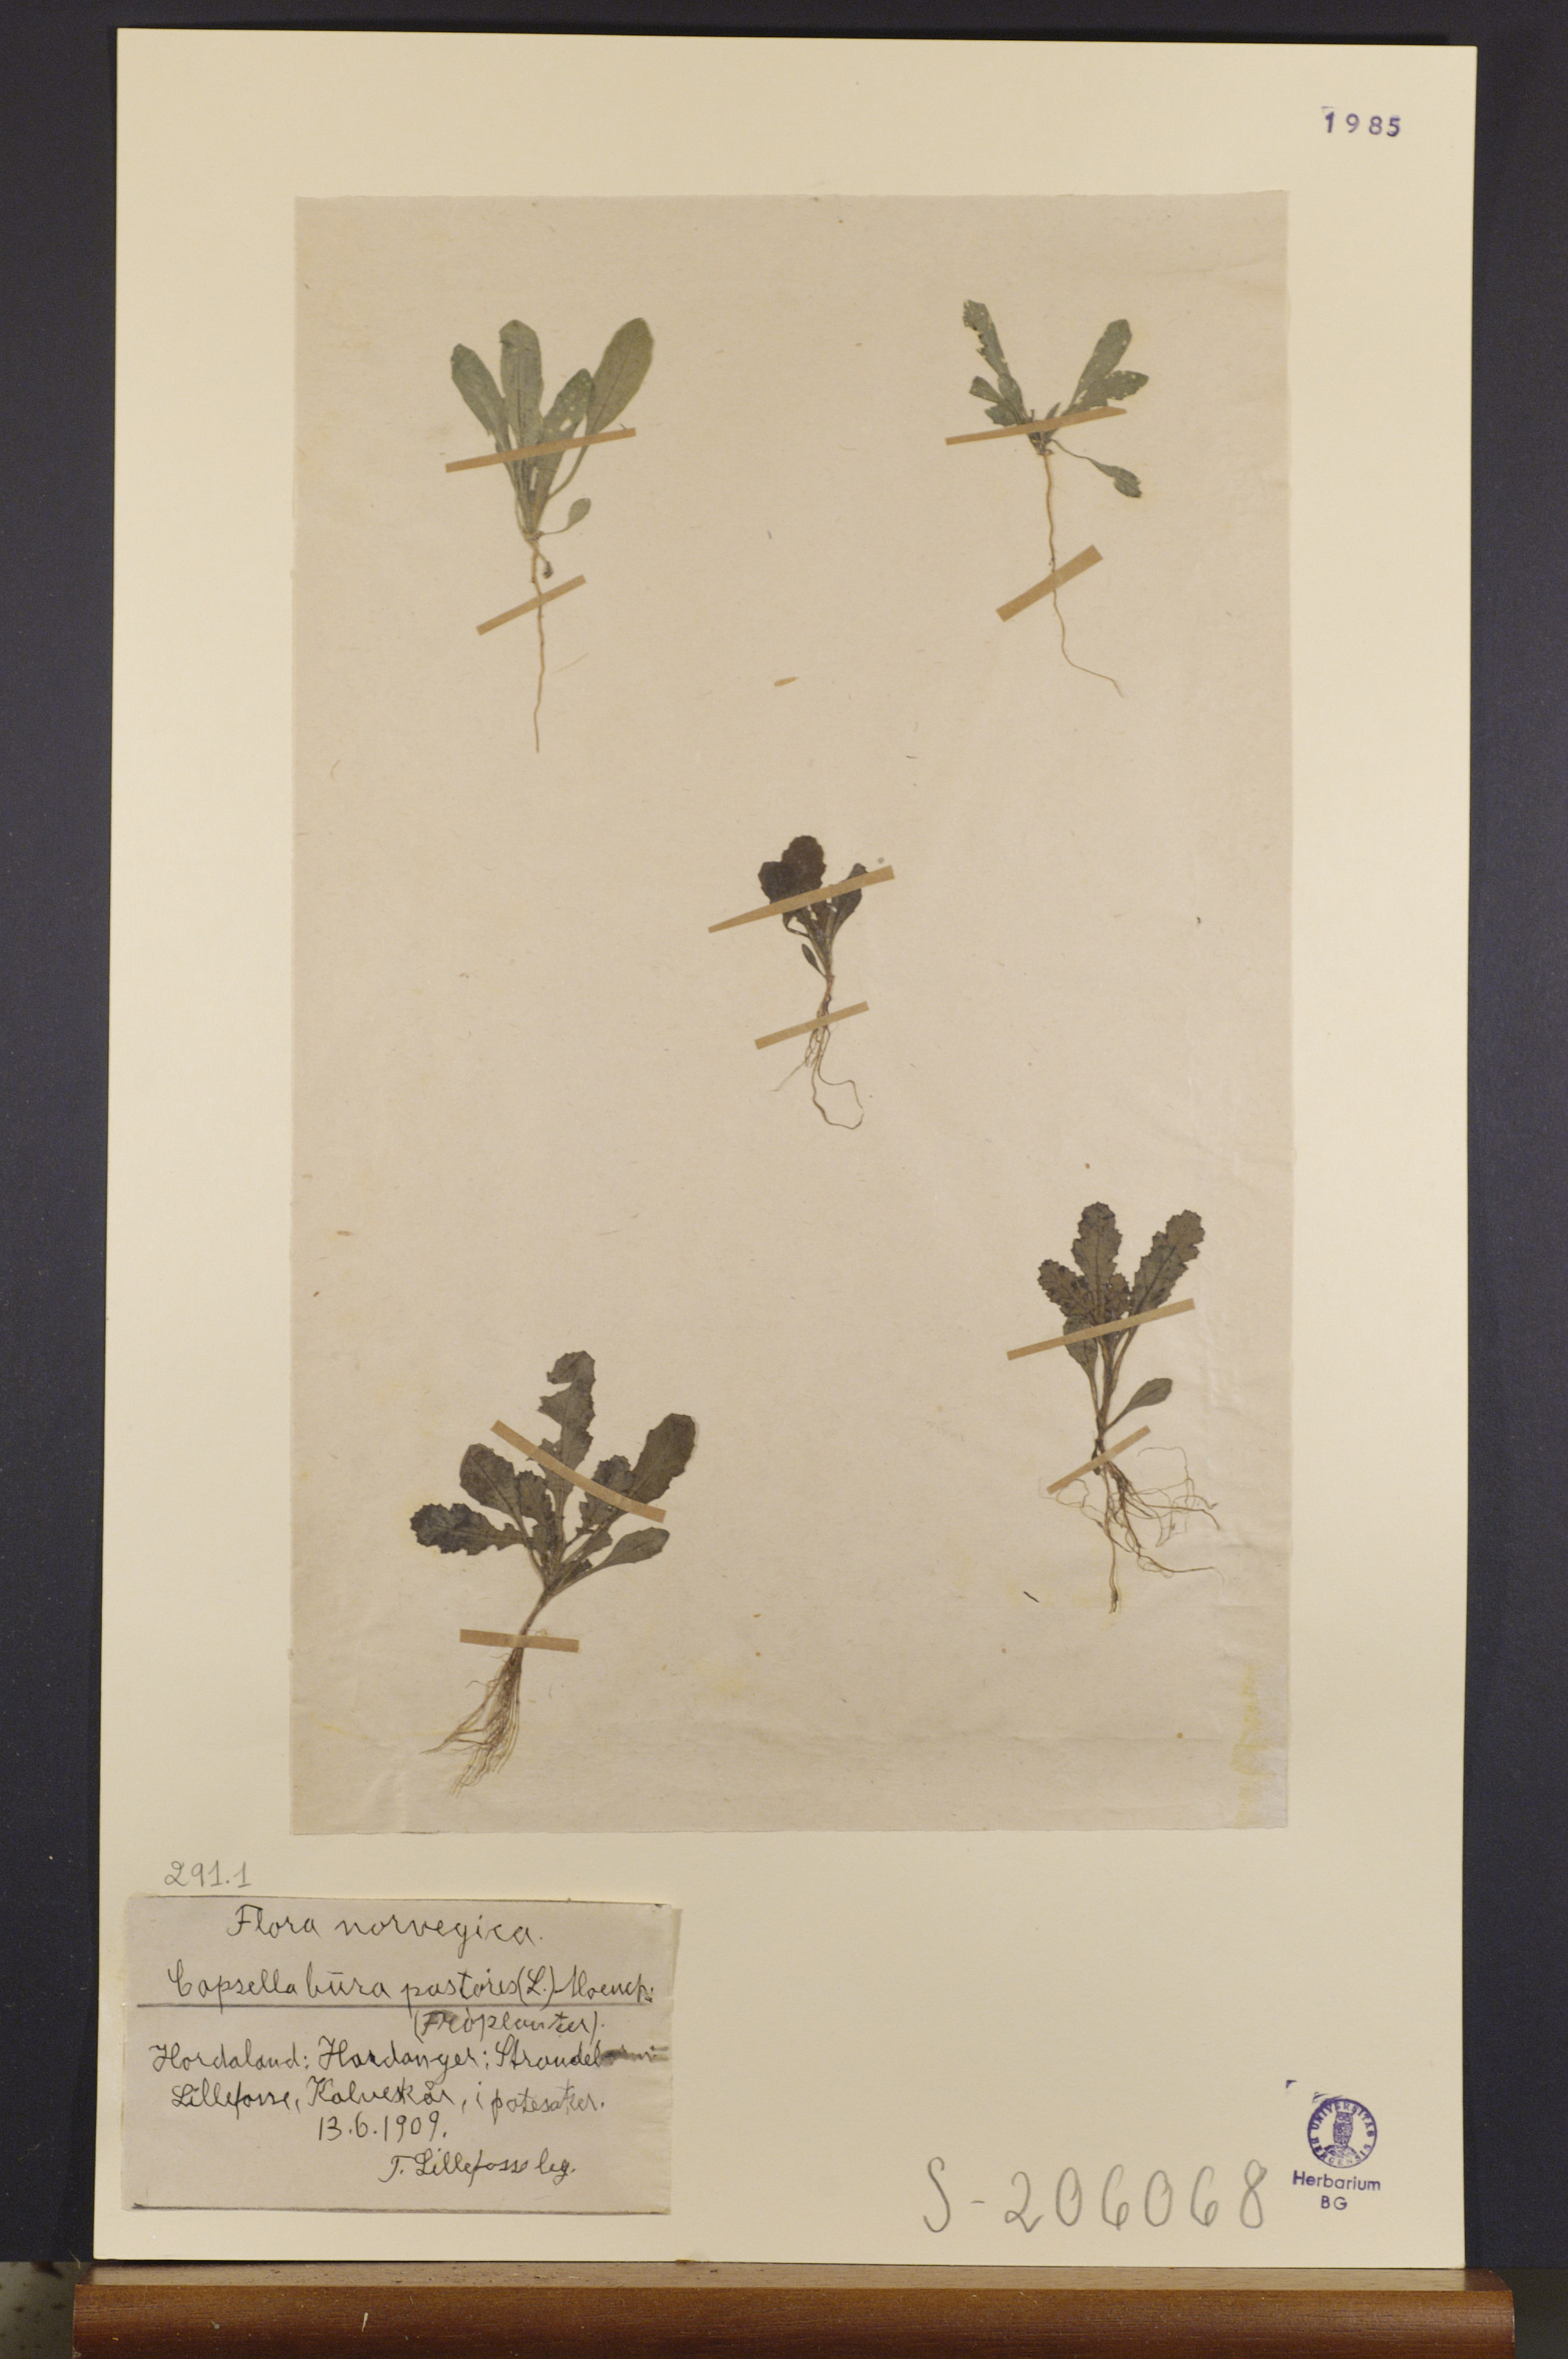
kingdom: Plantae
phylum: Tracheophyta
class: Magnoliopsida
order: Brassicales
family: Brassicaceae
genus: Capsella
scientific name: Capsella bursa-pastoris
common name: Shepherd's purse
